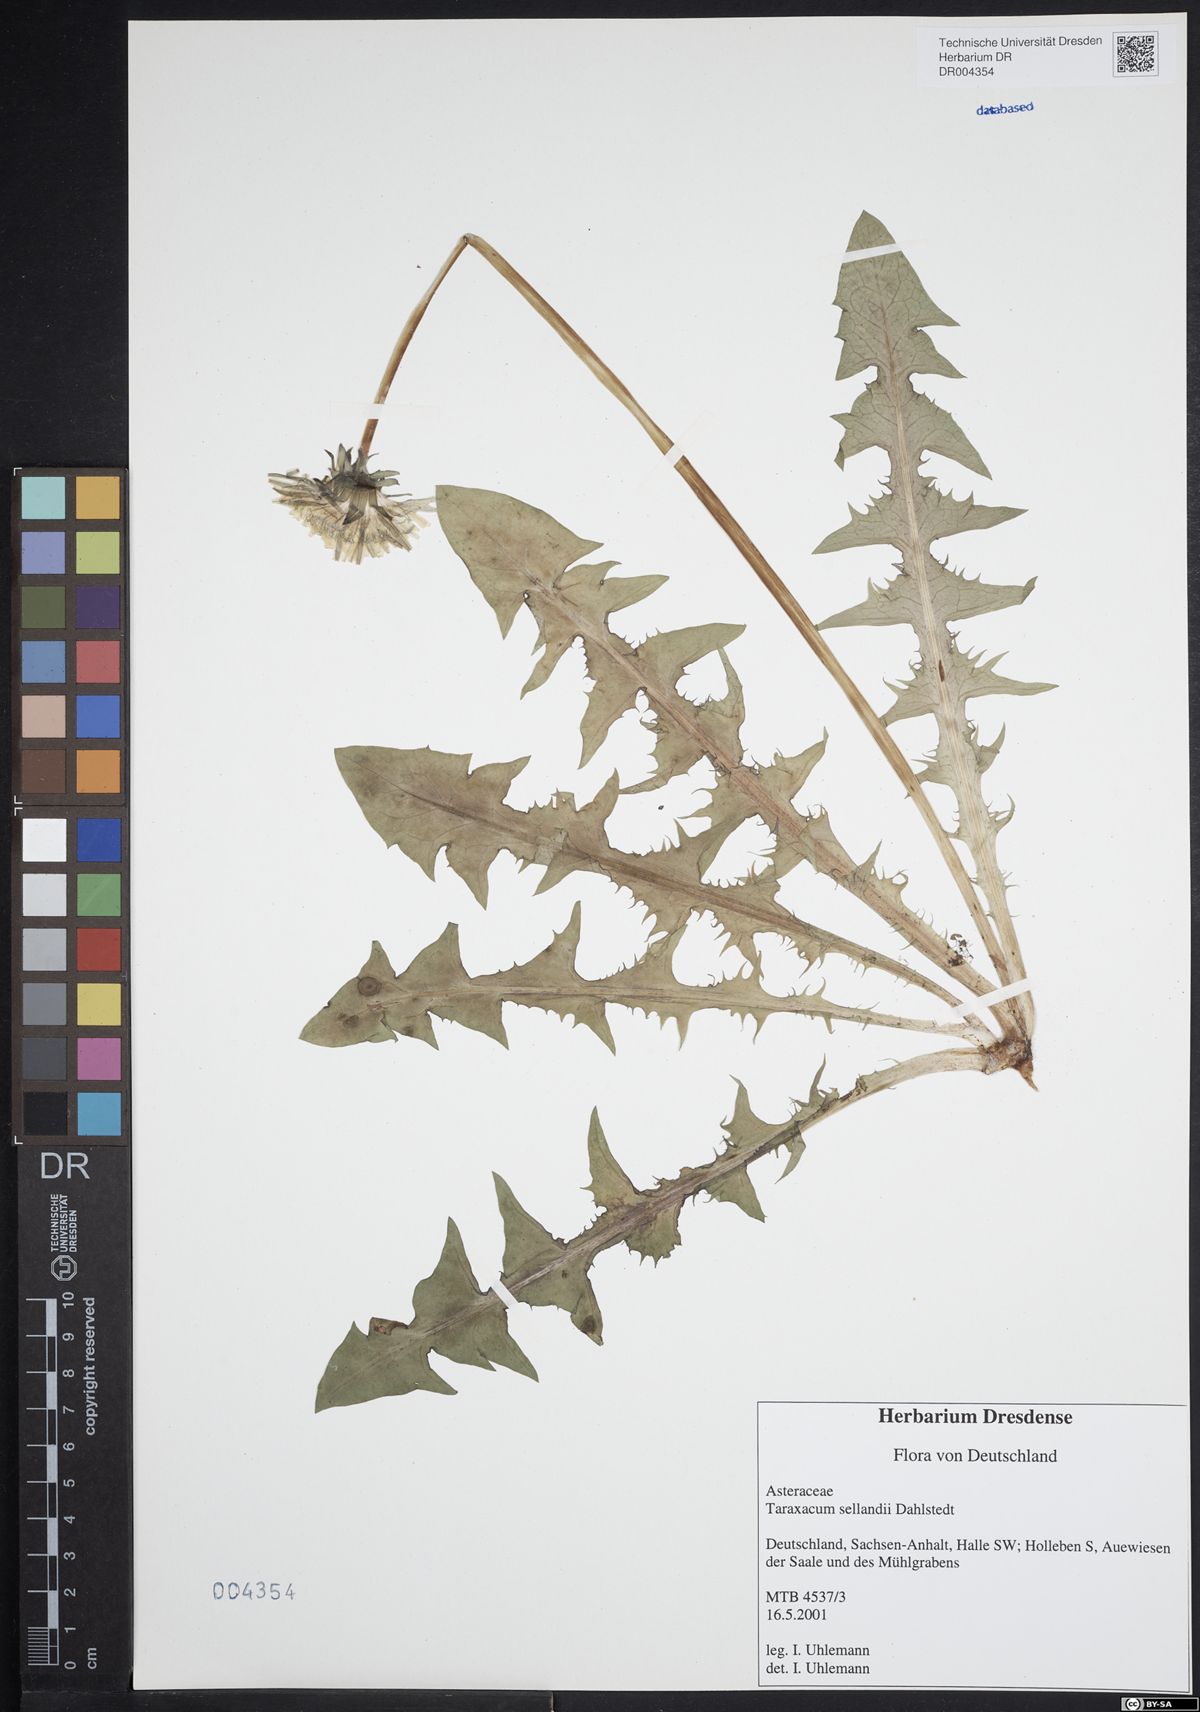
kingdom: Plantae
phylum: Tracheophyta
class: Magnoliopsida
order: Asterales
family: Asteraceae
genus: Taraxacum
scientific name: Taraxacum sellandii
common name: Selland's dandelion
